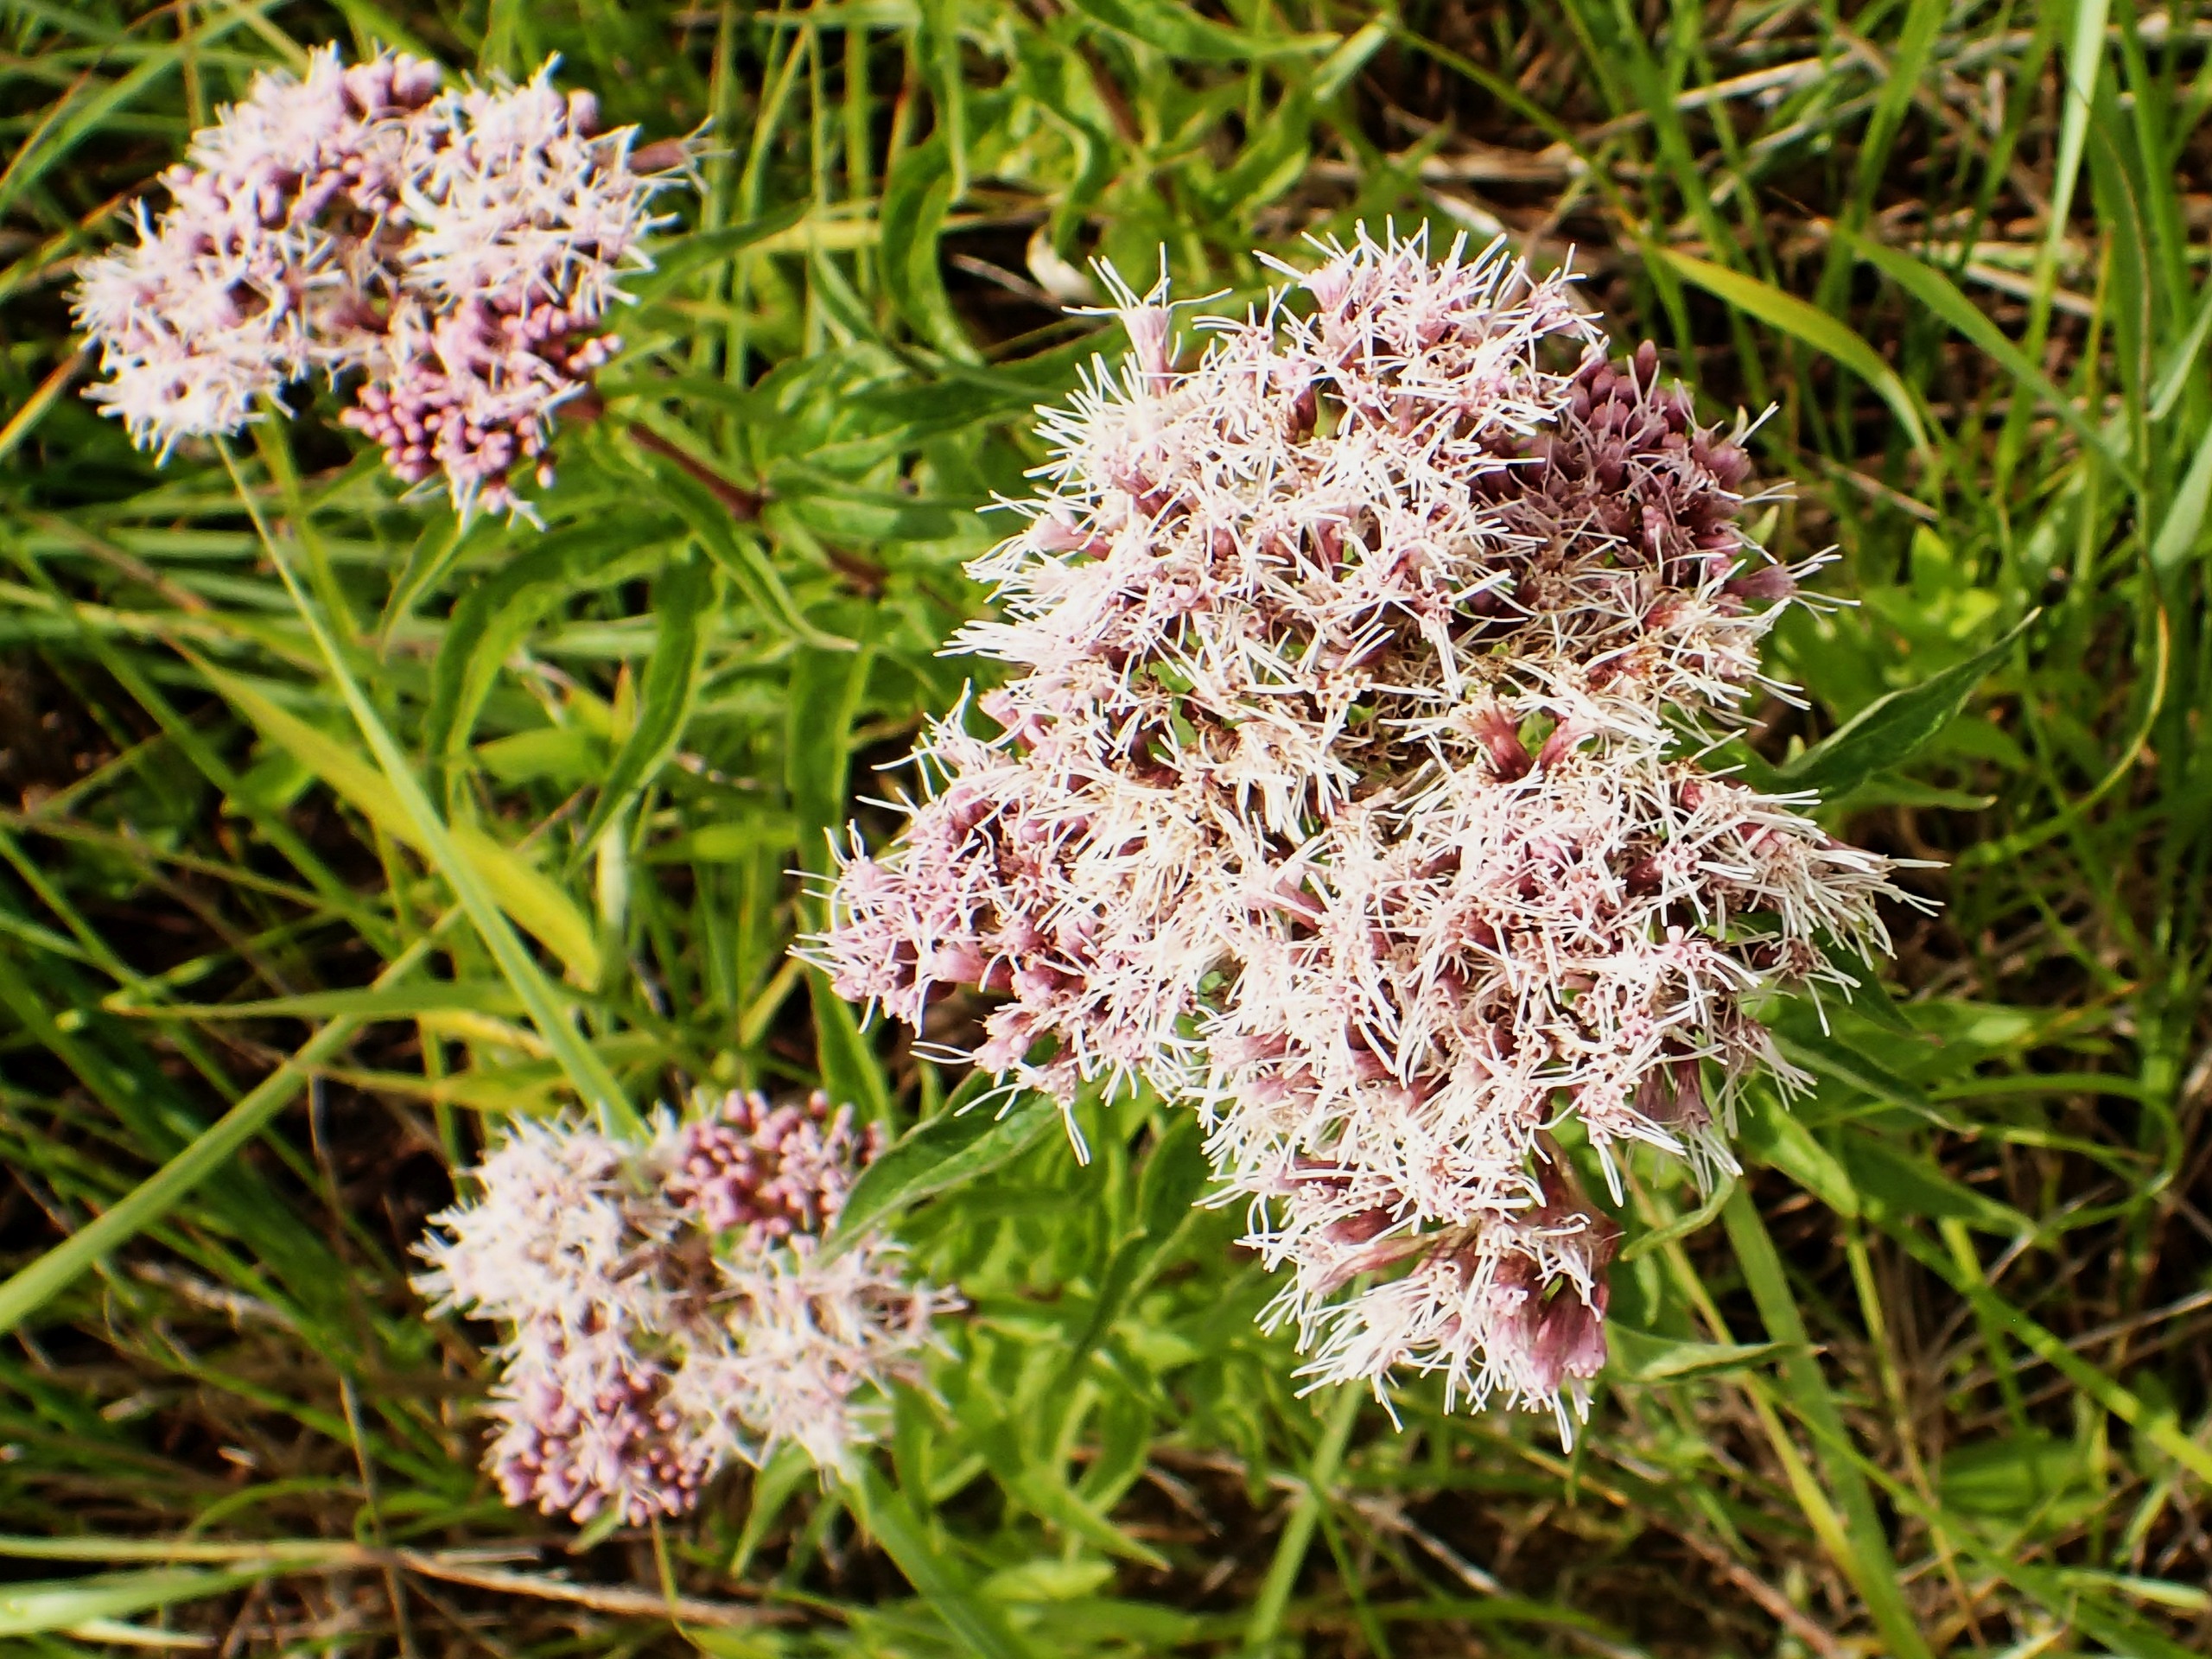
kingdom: Plantae
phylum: Tracheophyta
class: Magnoliopsida
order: Asterales
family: Asteraceae
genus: Eupatorium
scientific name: Eupatorium cannabinum
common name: Hjortetrøst
